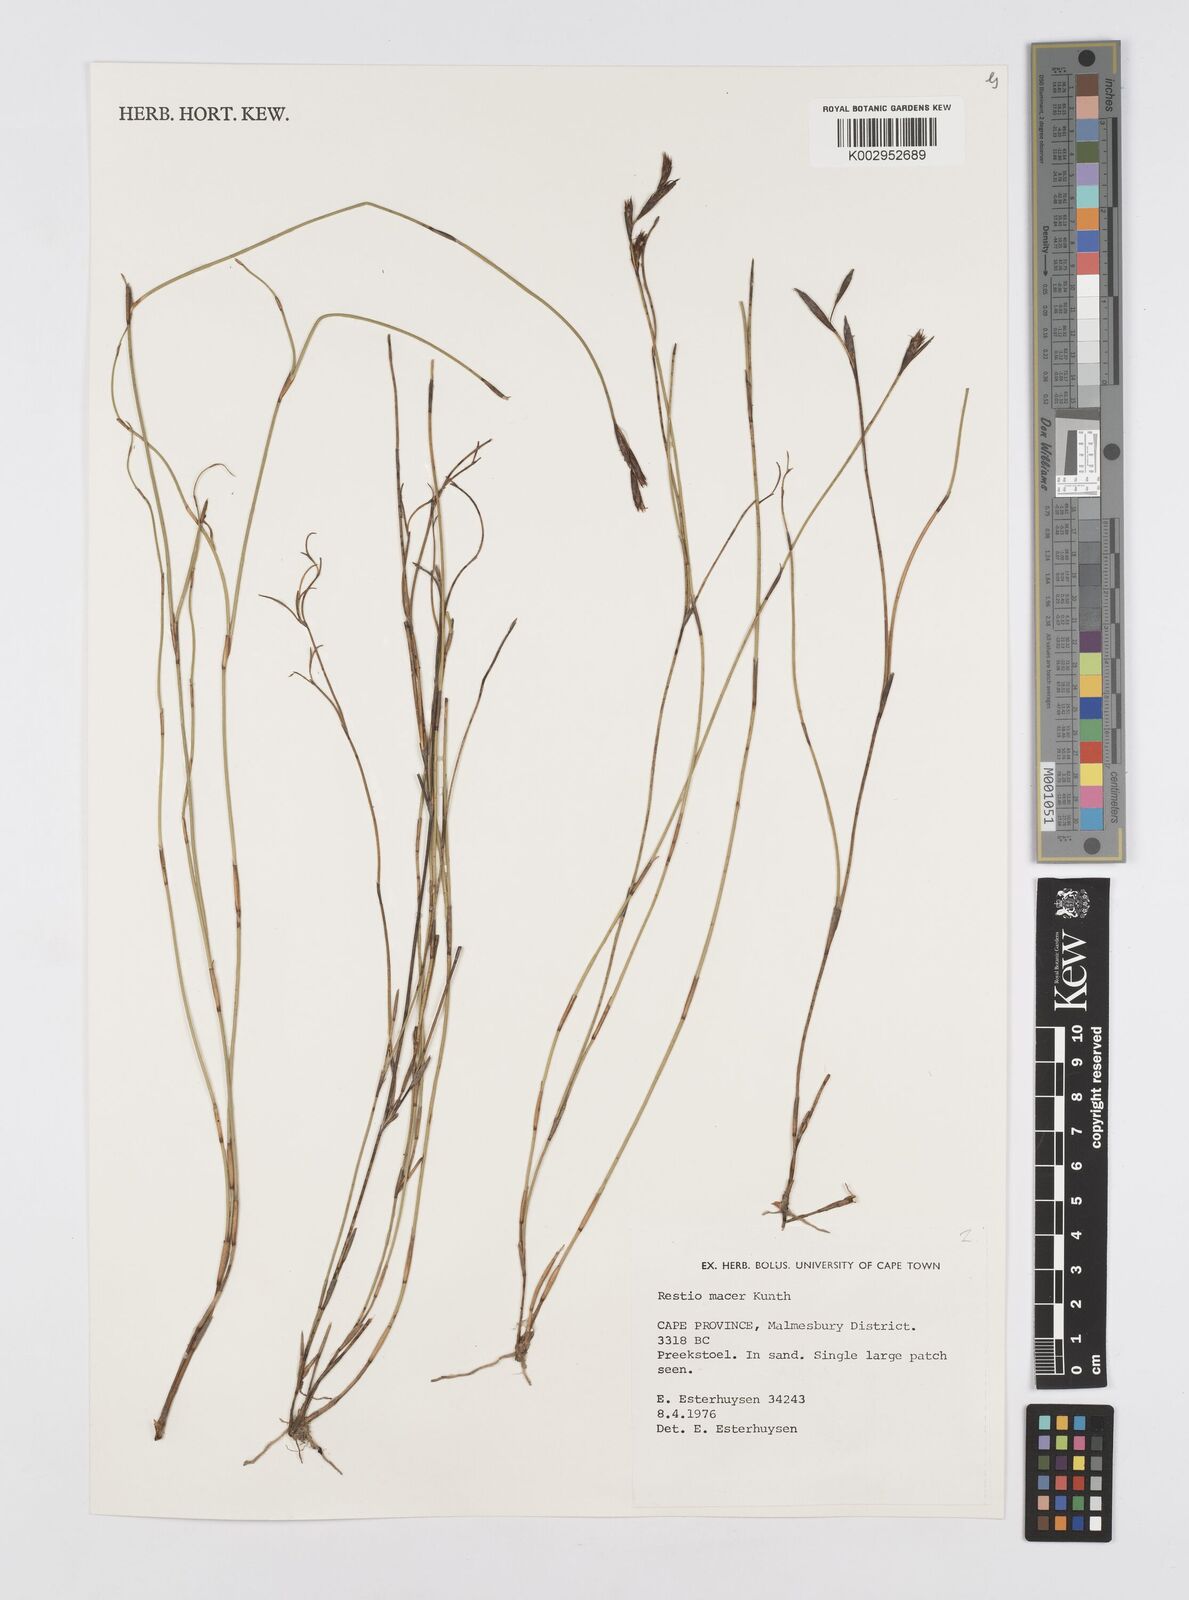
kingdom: Plantae
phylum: Tracheophyta
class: Liliopsida
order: Poales
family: Restionaceae
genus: Restio
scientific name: Restio macer
